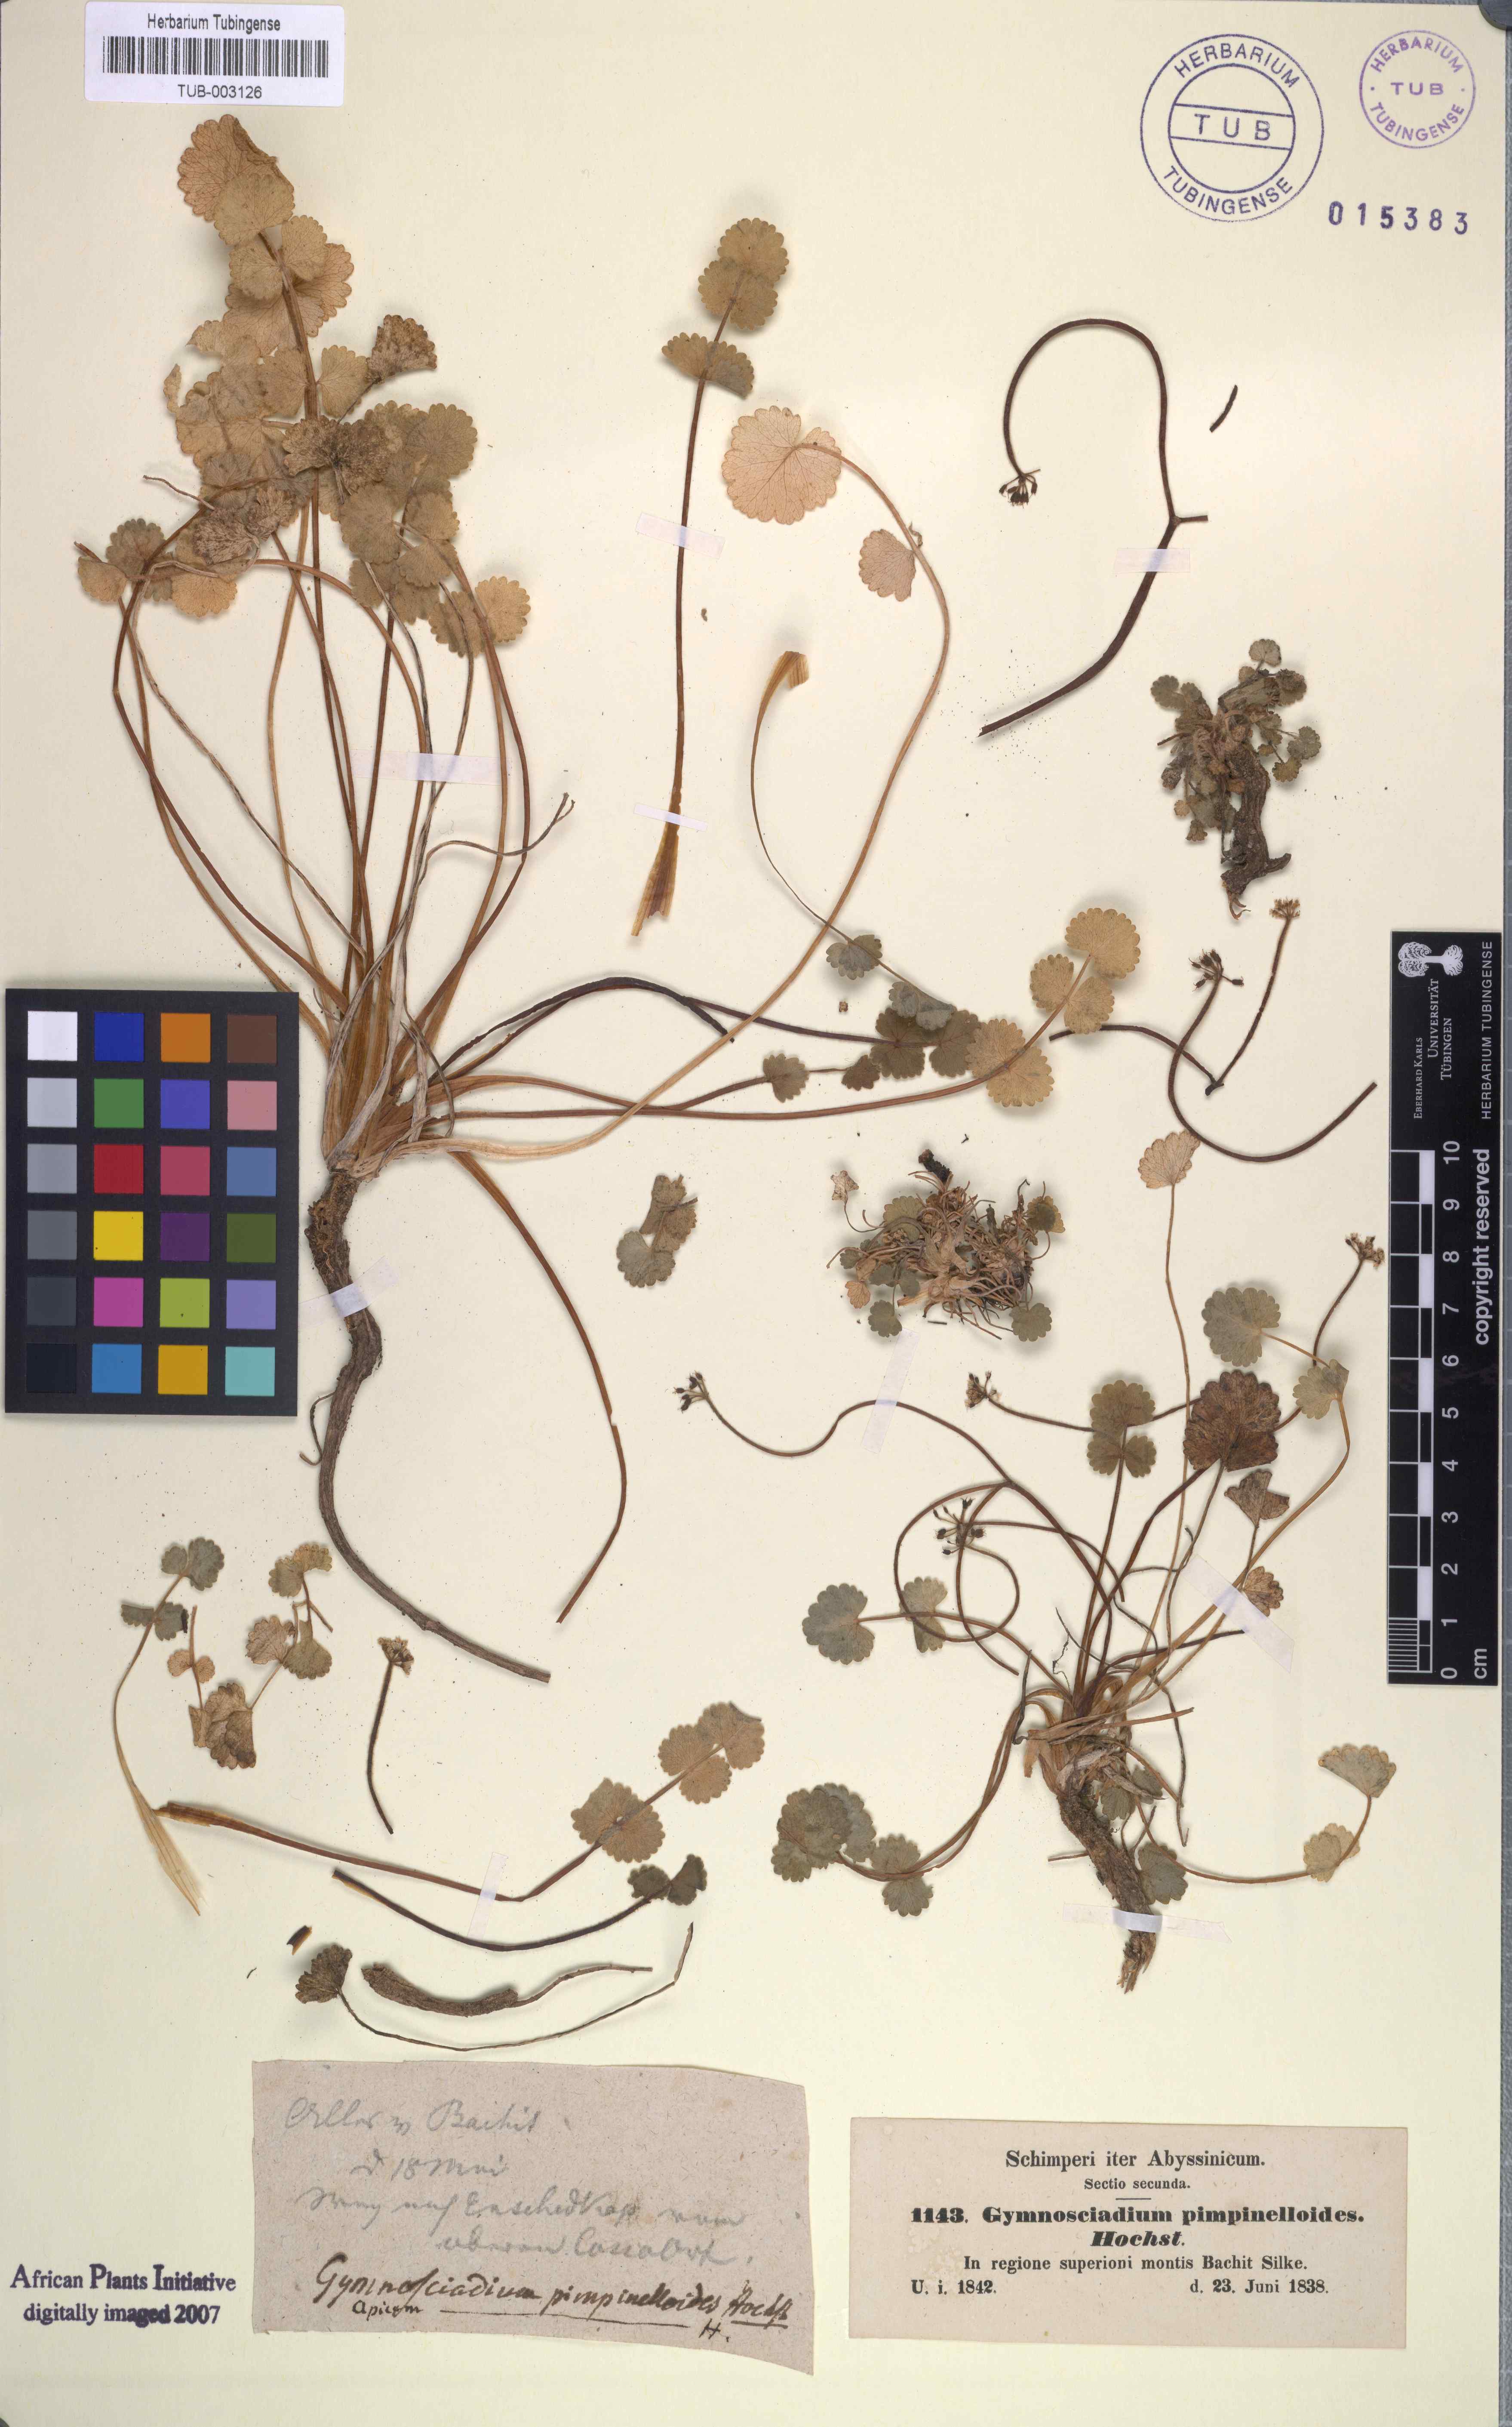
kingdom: Plantae
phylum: Tracheophyta
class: Magnoliopsida
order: Apiales
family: Apiaceae
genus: Pimpinella
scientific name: Pimpinella pimpinelloides
